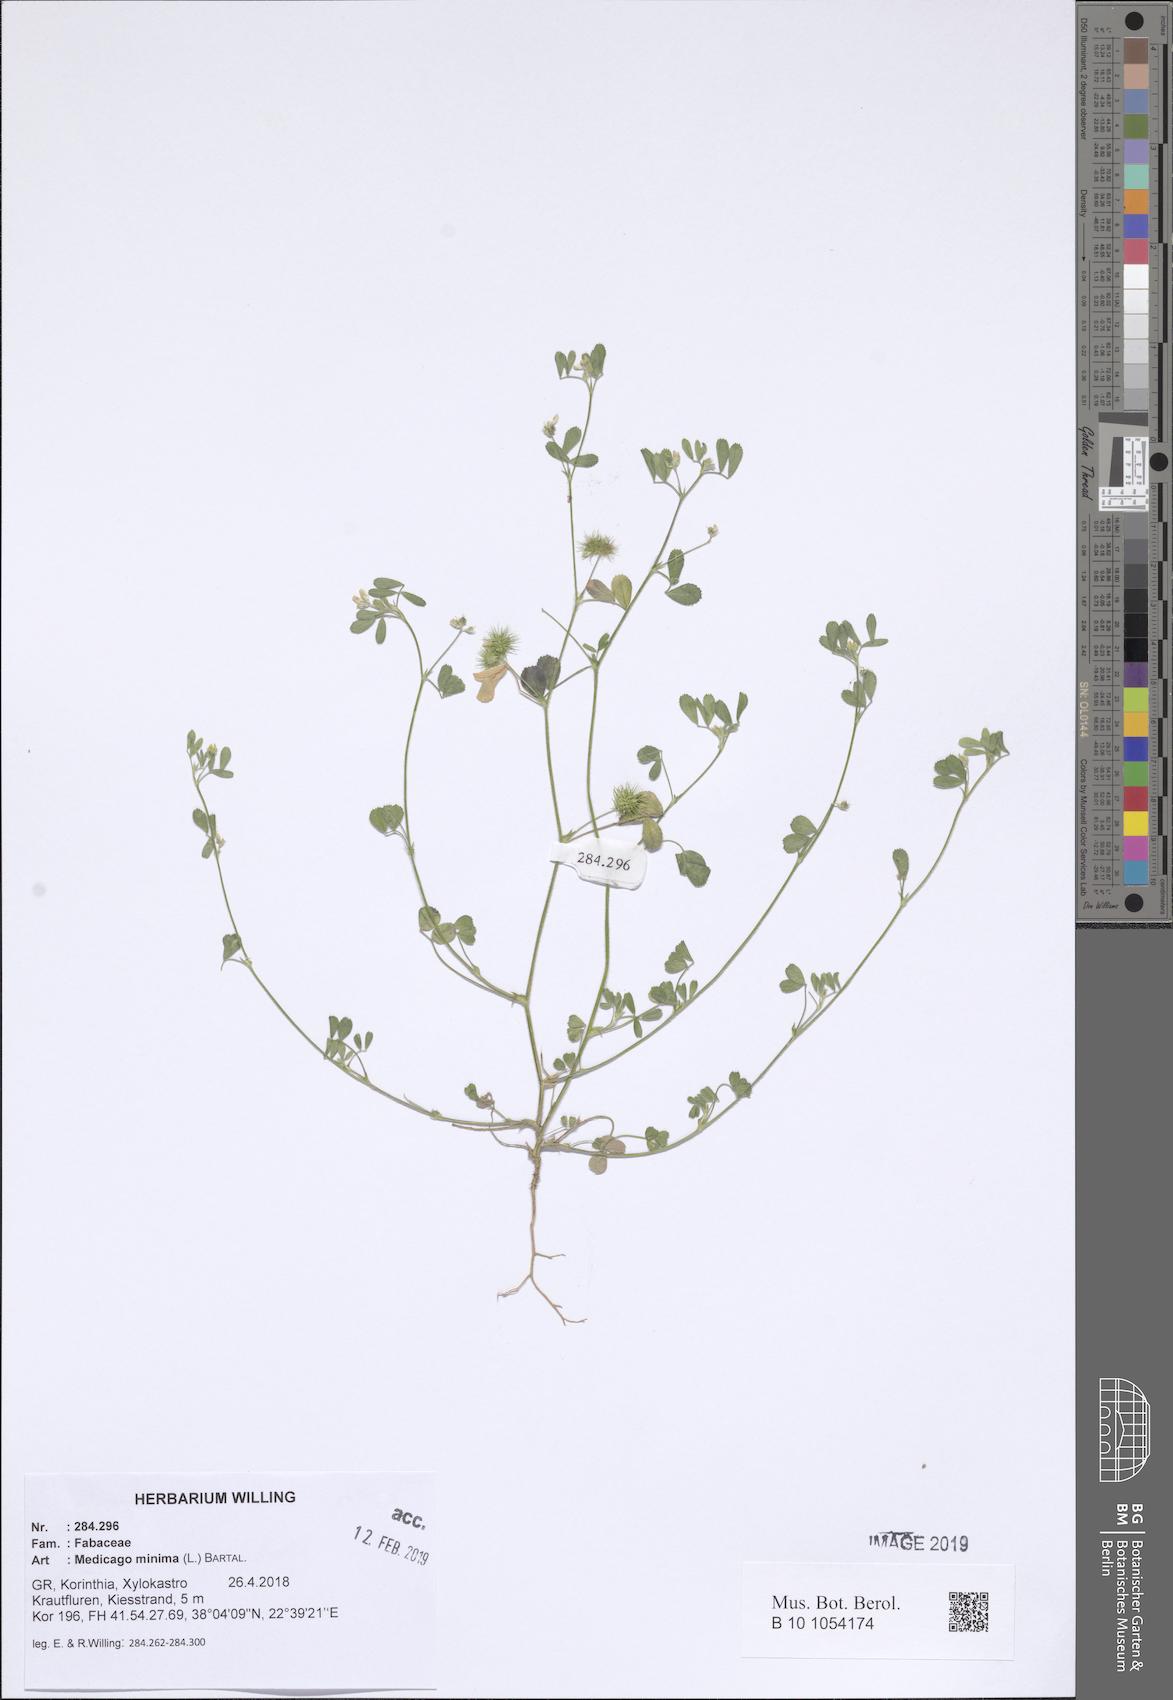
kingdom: Plantae
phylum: Tracheophyta
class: Magnoliopsida
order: Fabales
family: Fabaceae
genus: Medicago
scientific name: Medicago minima
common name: Little bur-clover
